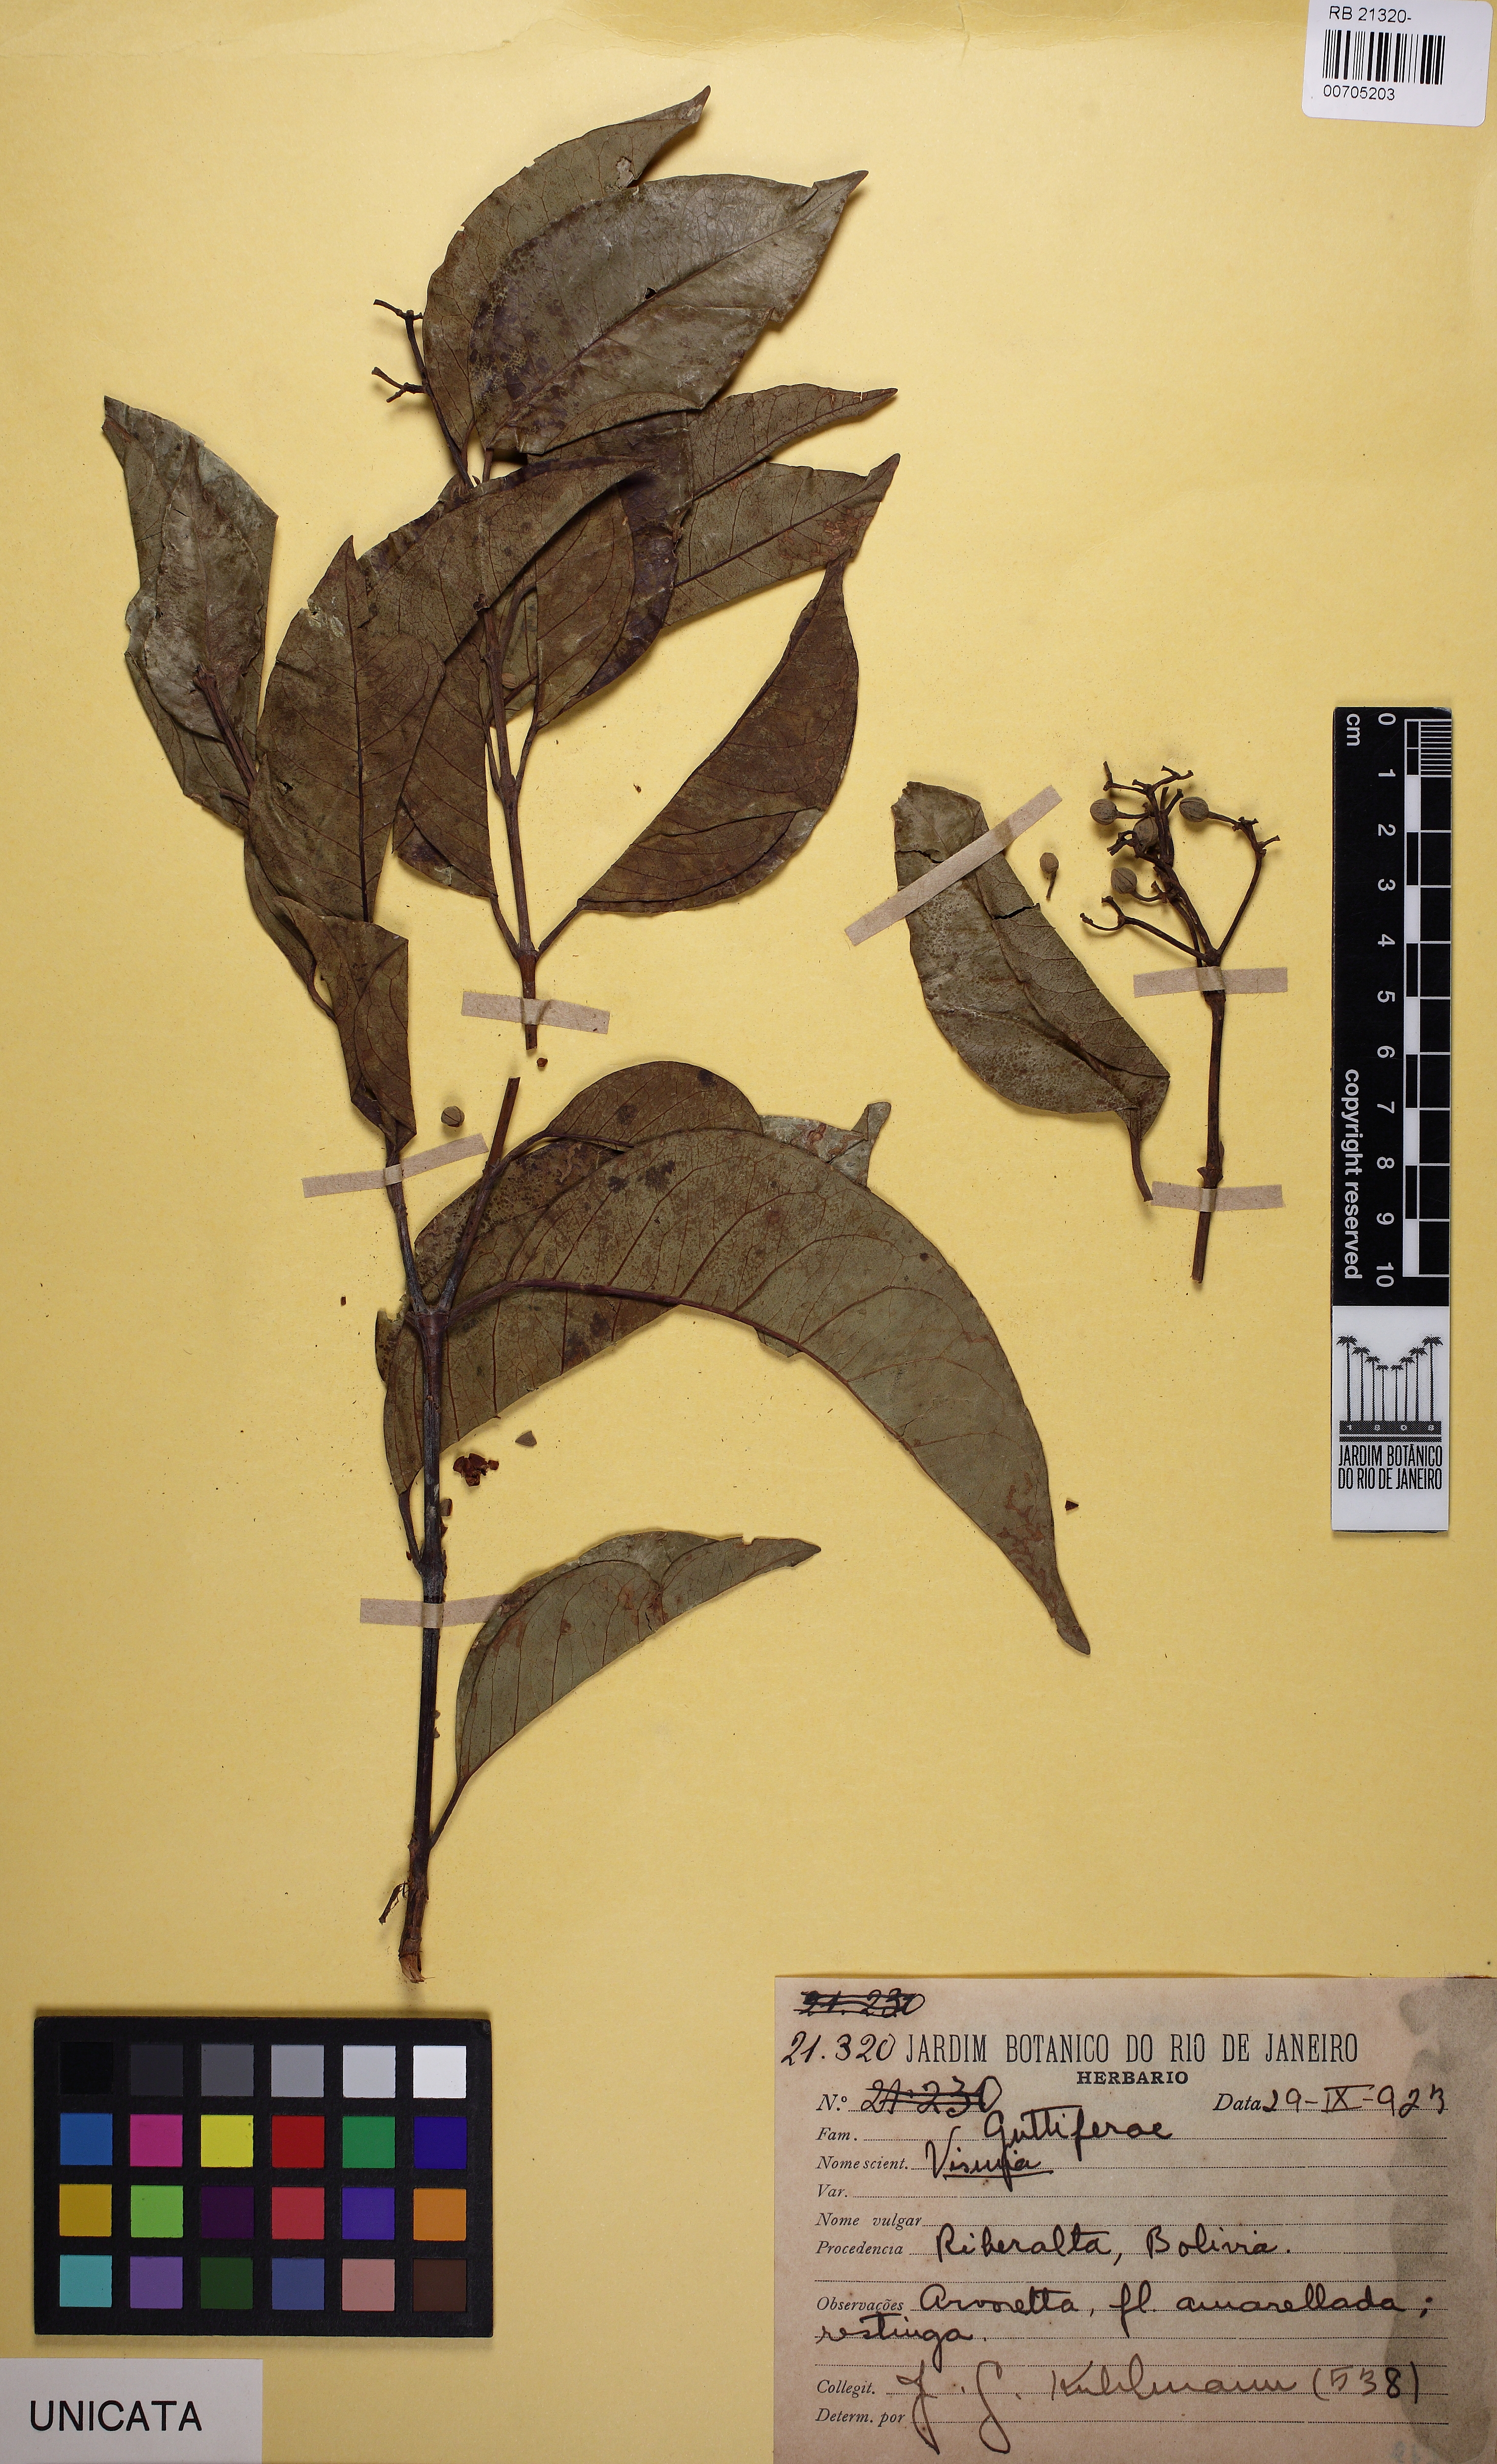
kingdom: Plantae
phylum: Tracheophyta
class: Magnoliopsida
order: Malpighiales
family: Hypericaceae
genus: Vismia
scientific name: Vismia
